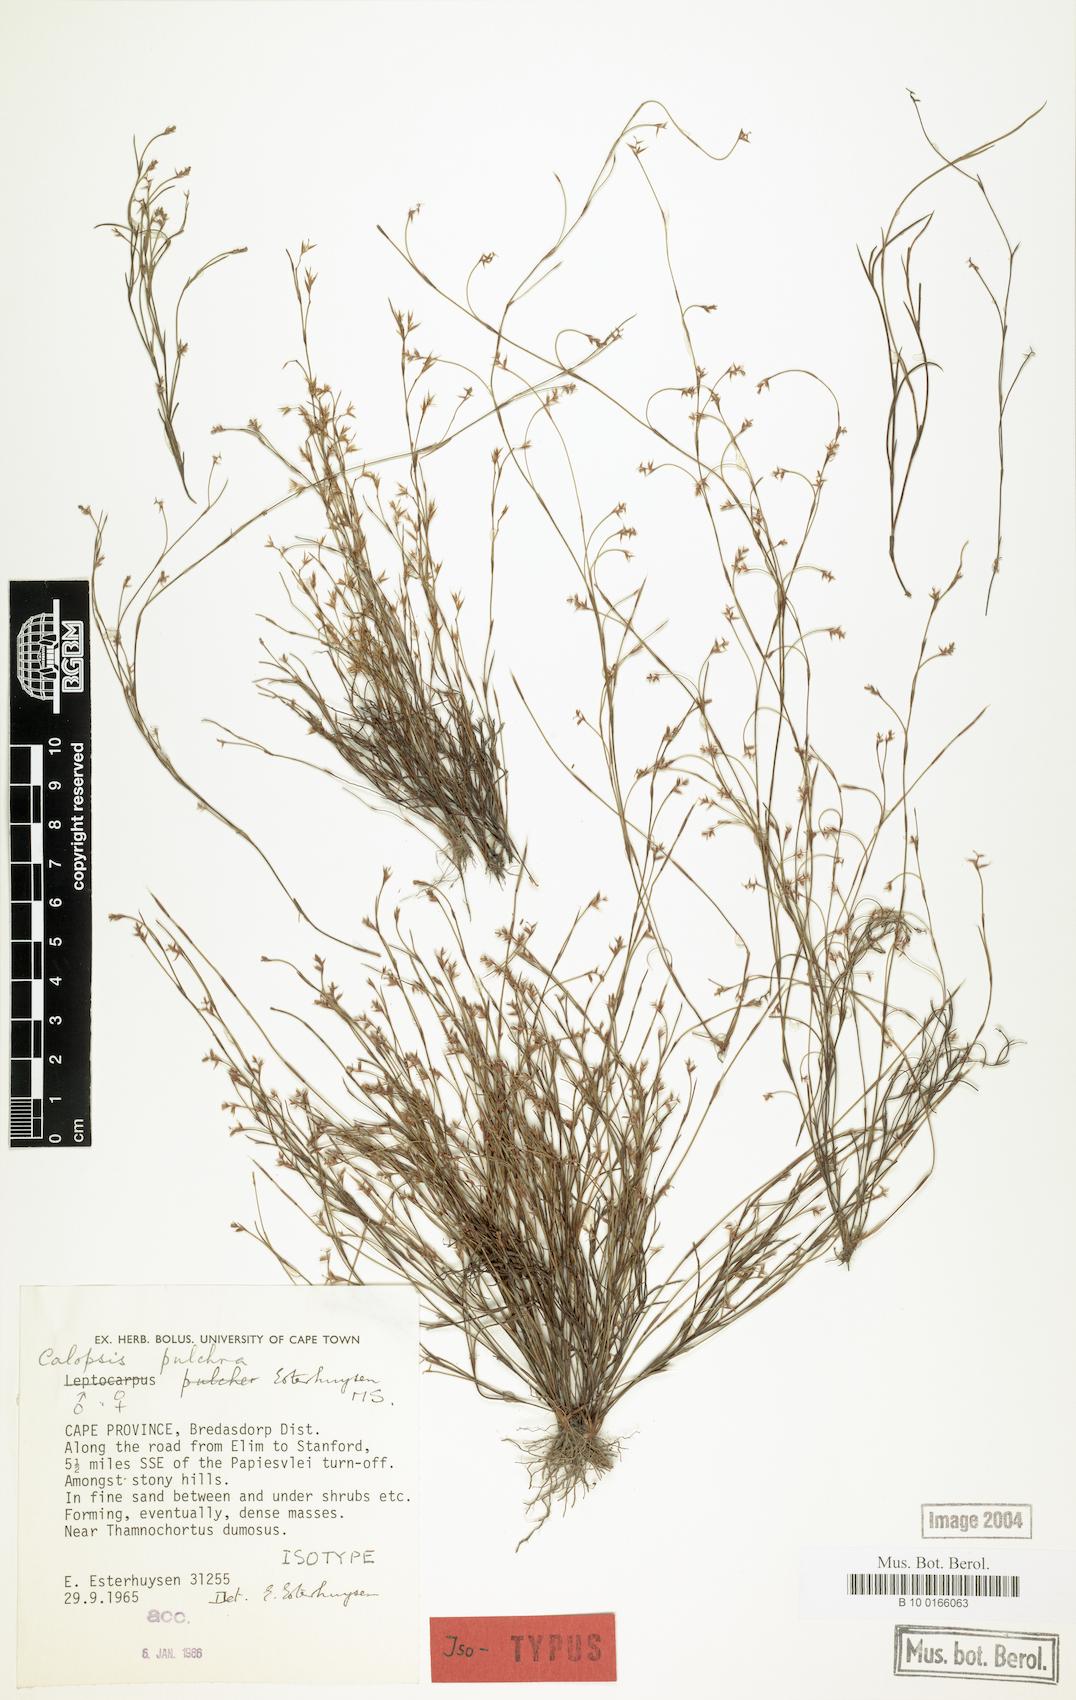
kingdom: Plantae
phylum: Tracheophyta
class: Liliopsida
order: Poales
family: Restionaceae
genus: Restio
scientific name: Restio pulcher
